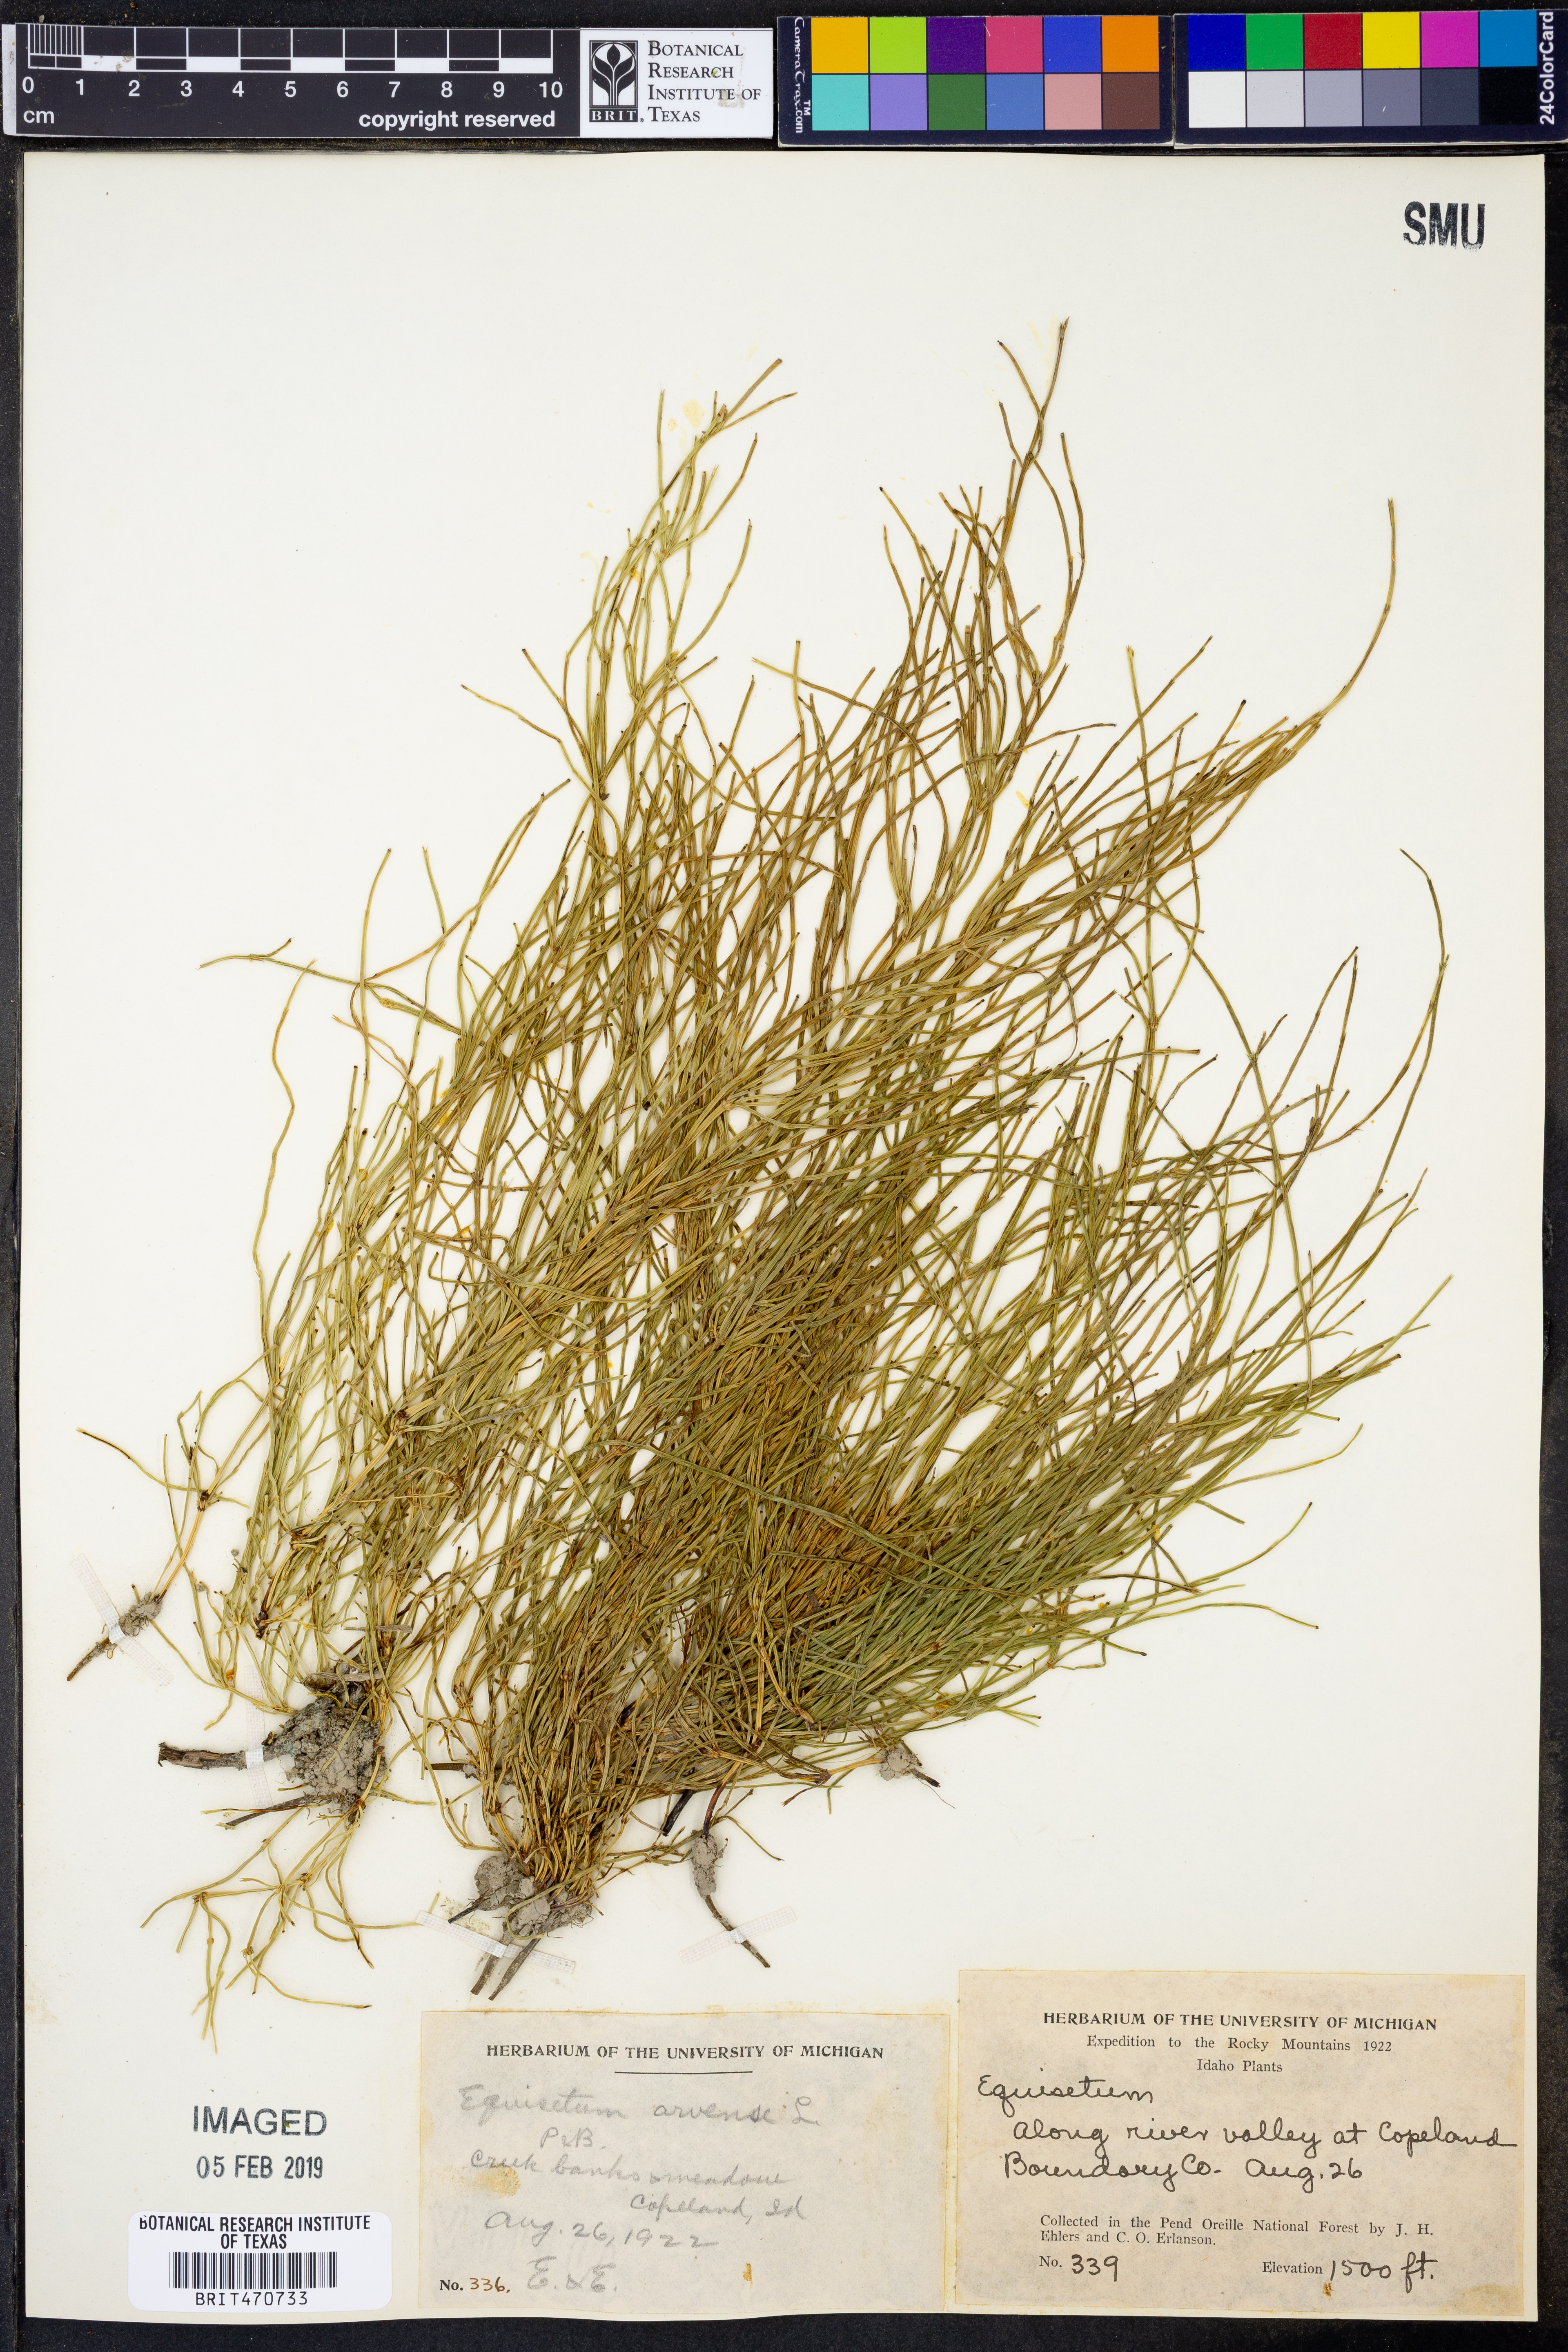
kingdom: Plantae
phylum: Tracheophyta
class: Polypodiopsida
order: Equisetales
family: Equisetaceae
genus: Equisetum
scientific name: Equisetum
